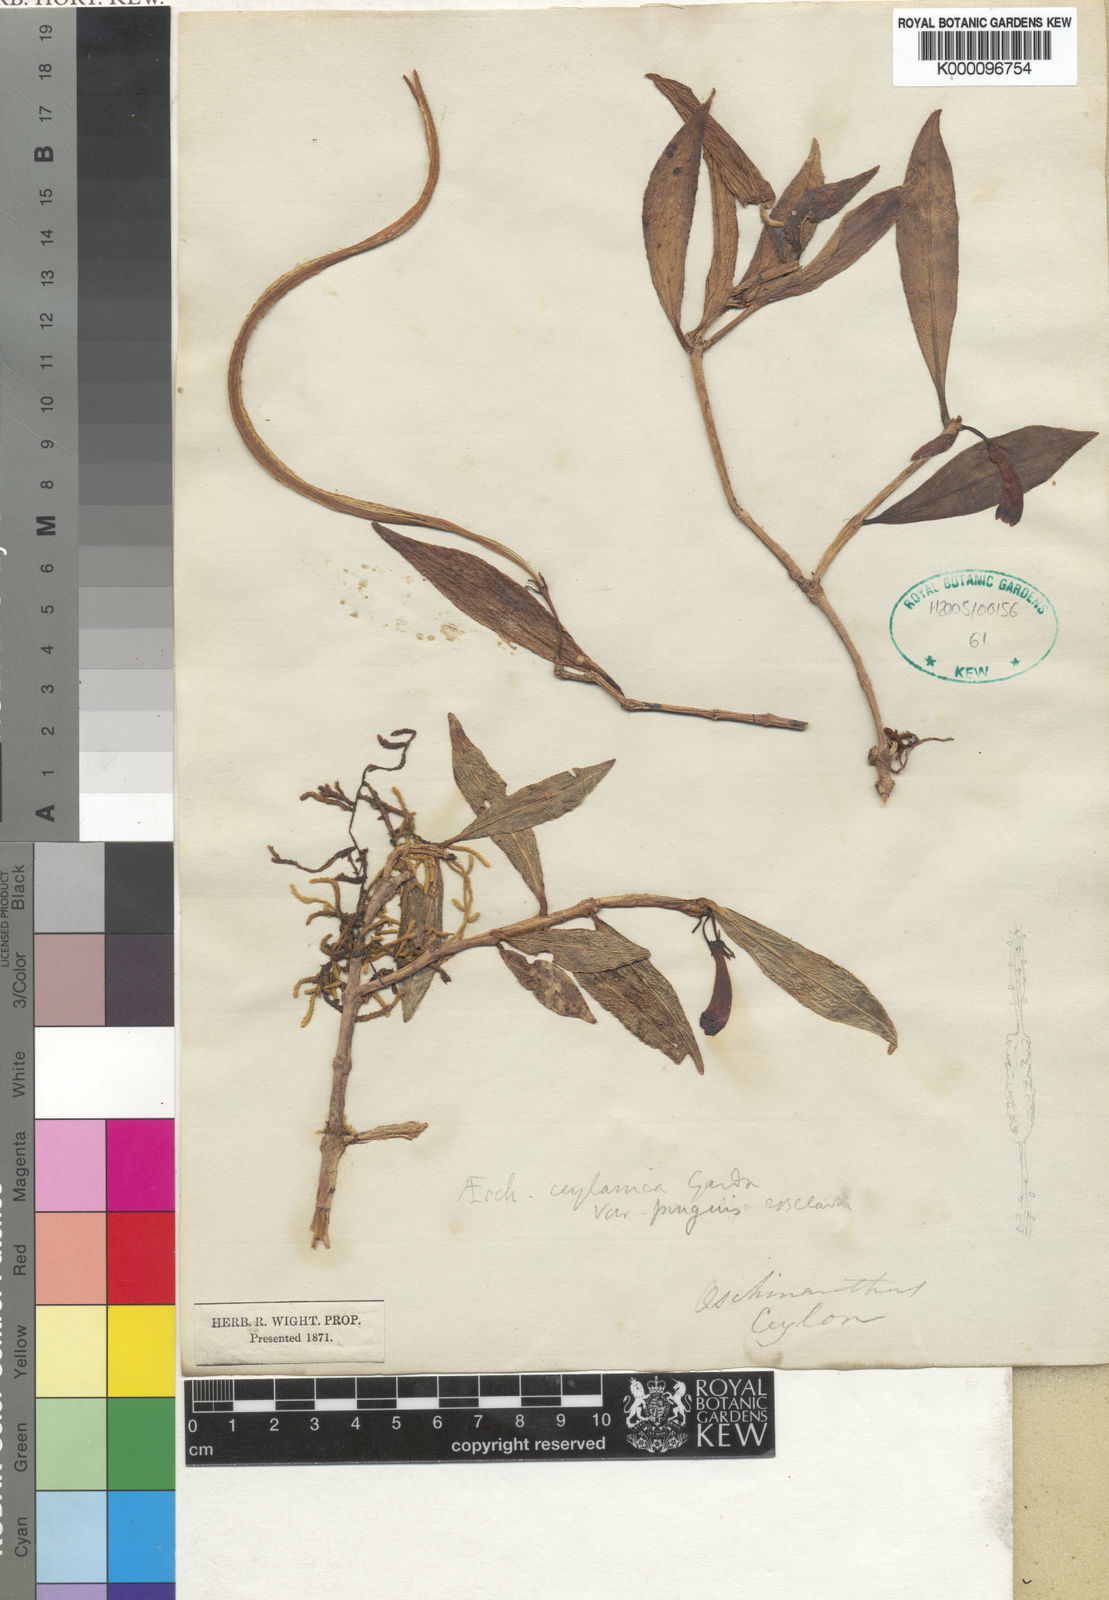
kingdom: Plantae
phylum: Tracheophyta
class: Magnoliopsida
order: Lamiales
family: Gesneriaceae
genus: Aeschynanthus
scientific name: Aeschynanthus
